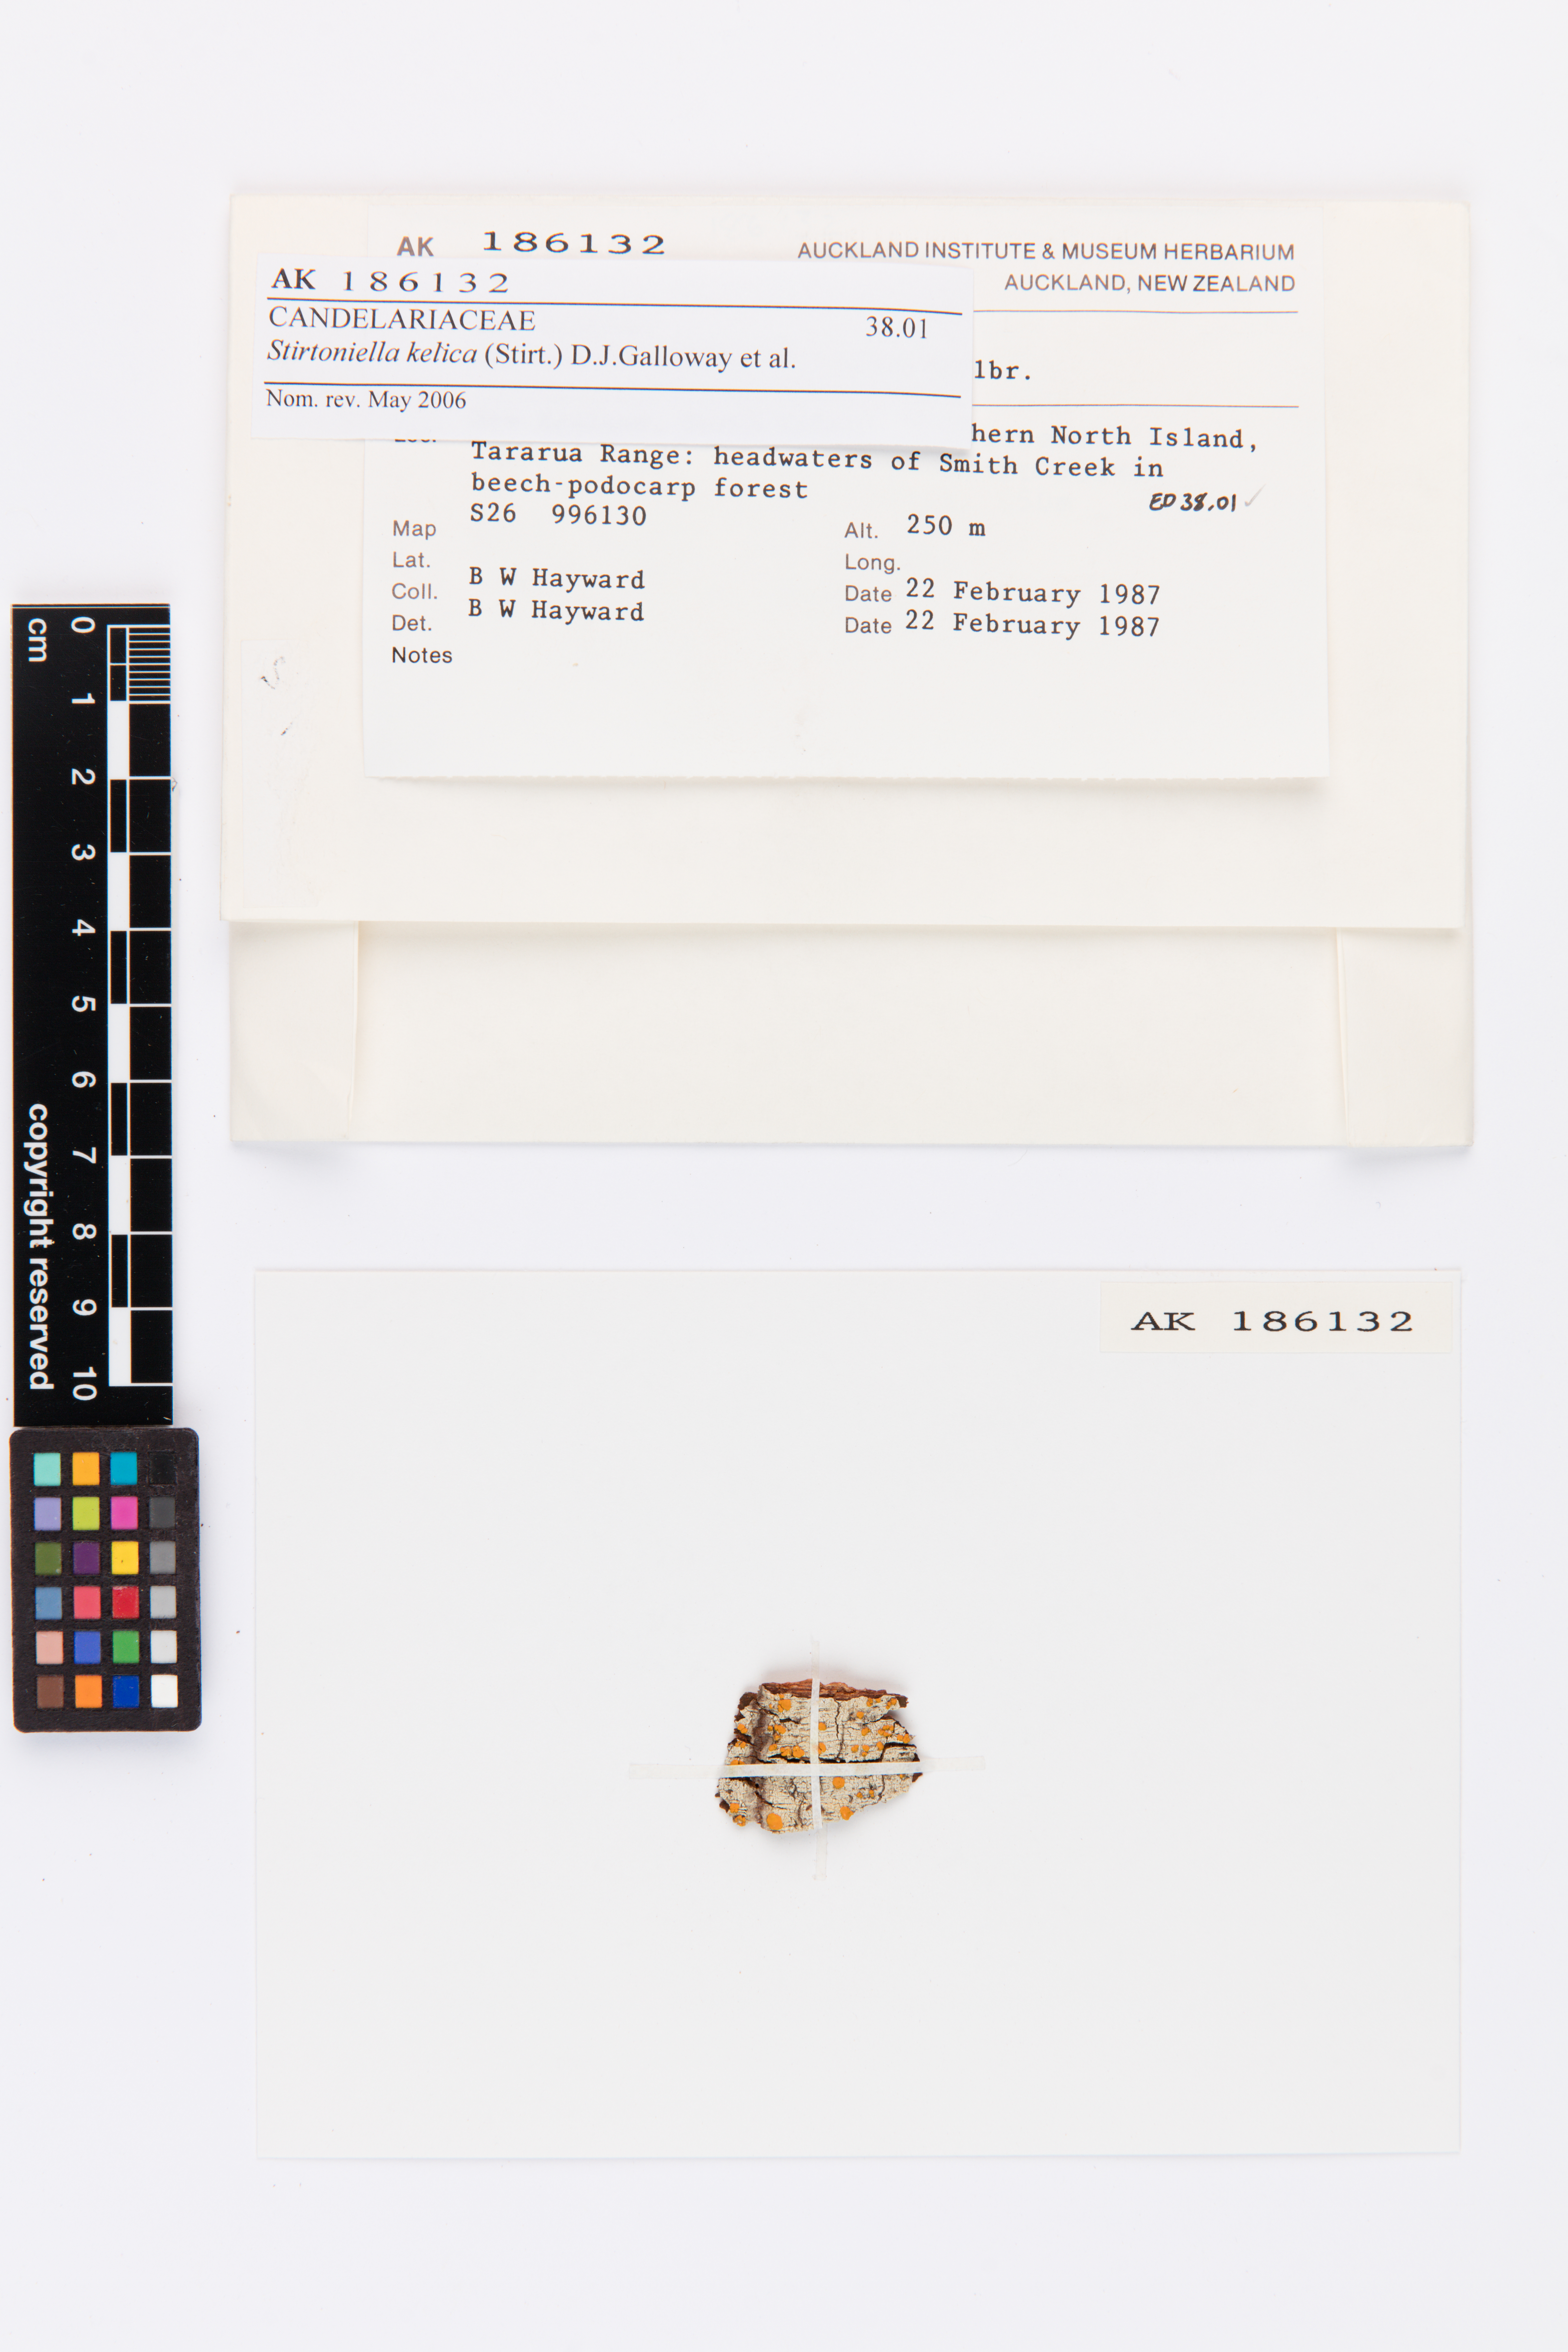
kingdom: Fungi
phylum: Ascomycota
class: Lecanoromycetes
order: Lecanorales
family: Ramalinaceae
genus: Stirtoniella
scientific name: Stirtoniella kelica
